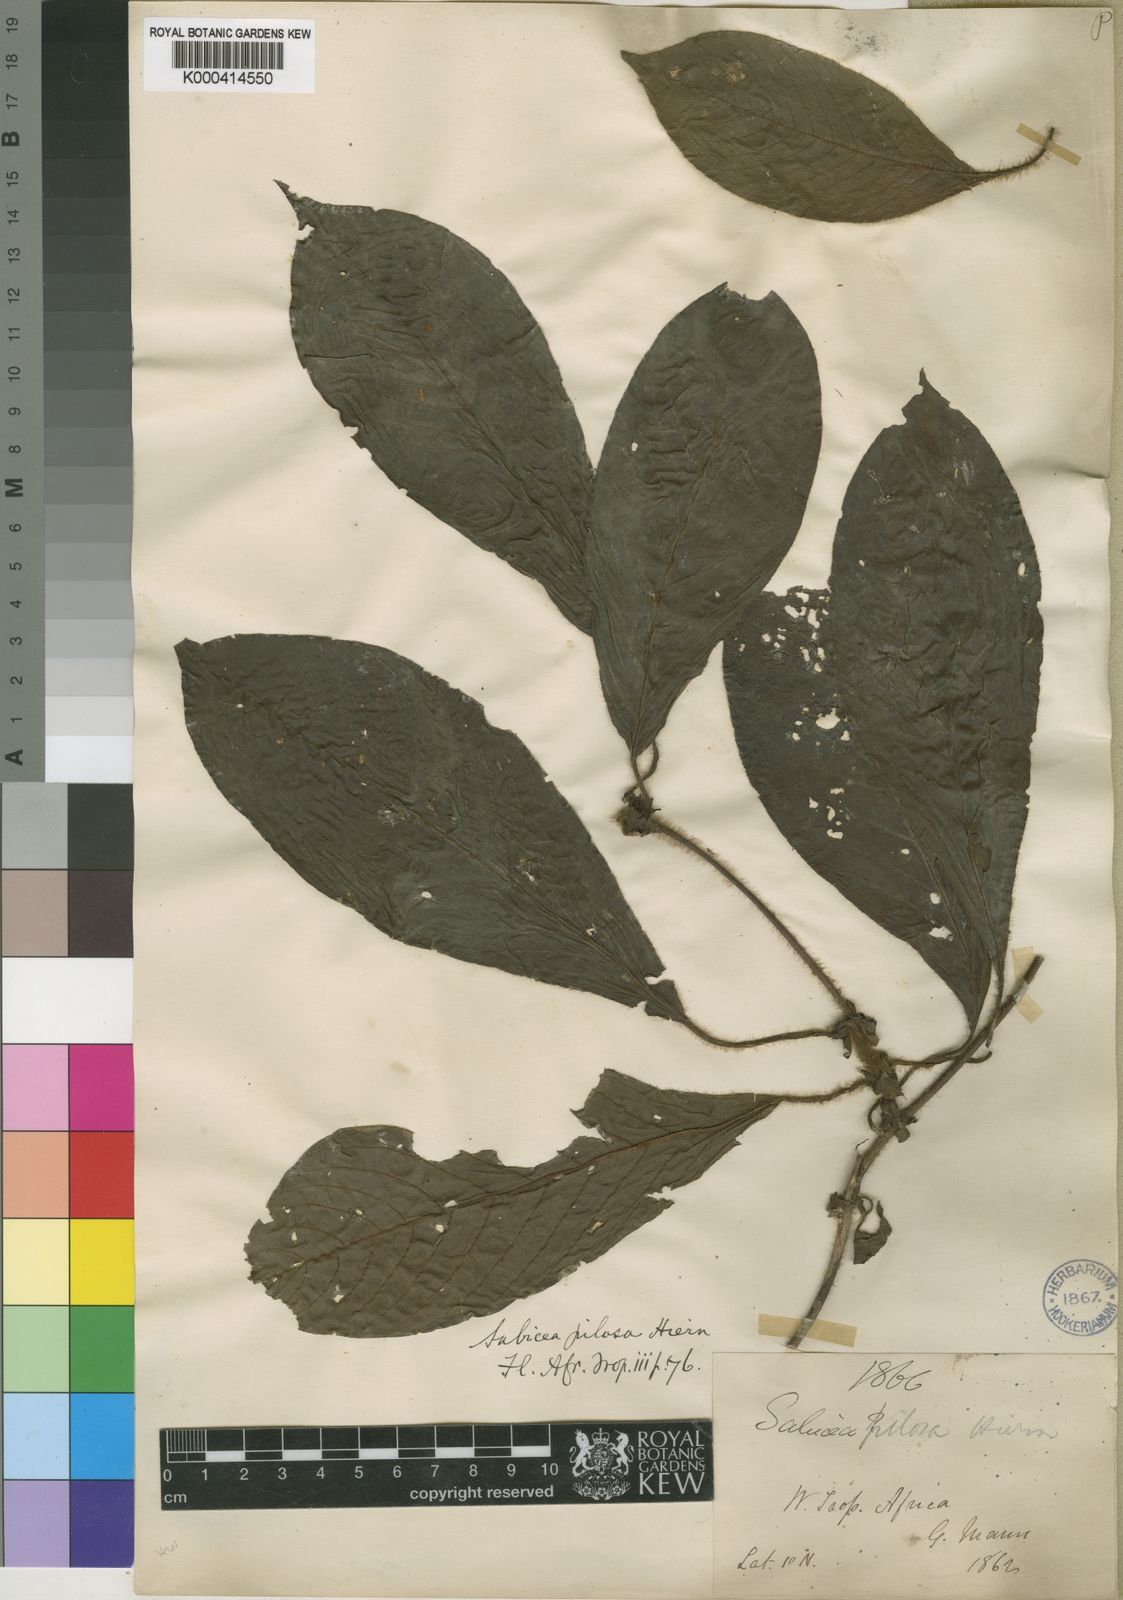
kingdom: Plantae
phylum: Tracheophyta
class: Magnoliopsida
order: Gentianales
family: Rubiaceae
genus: Sabicea
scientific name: Sabicea pilosa
